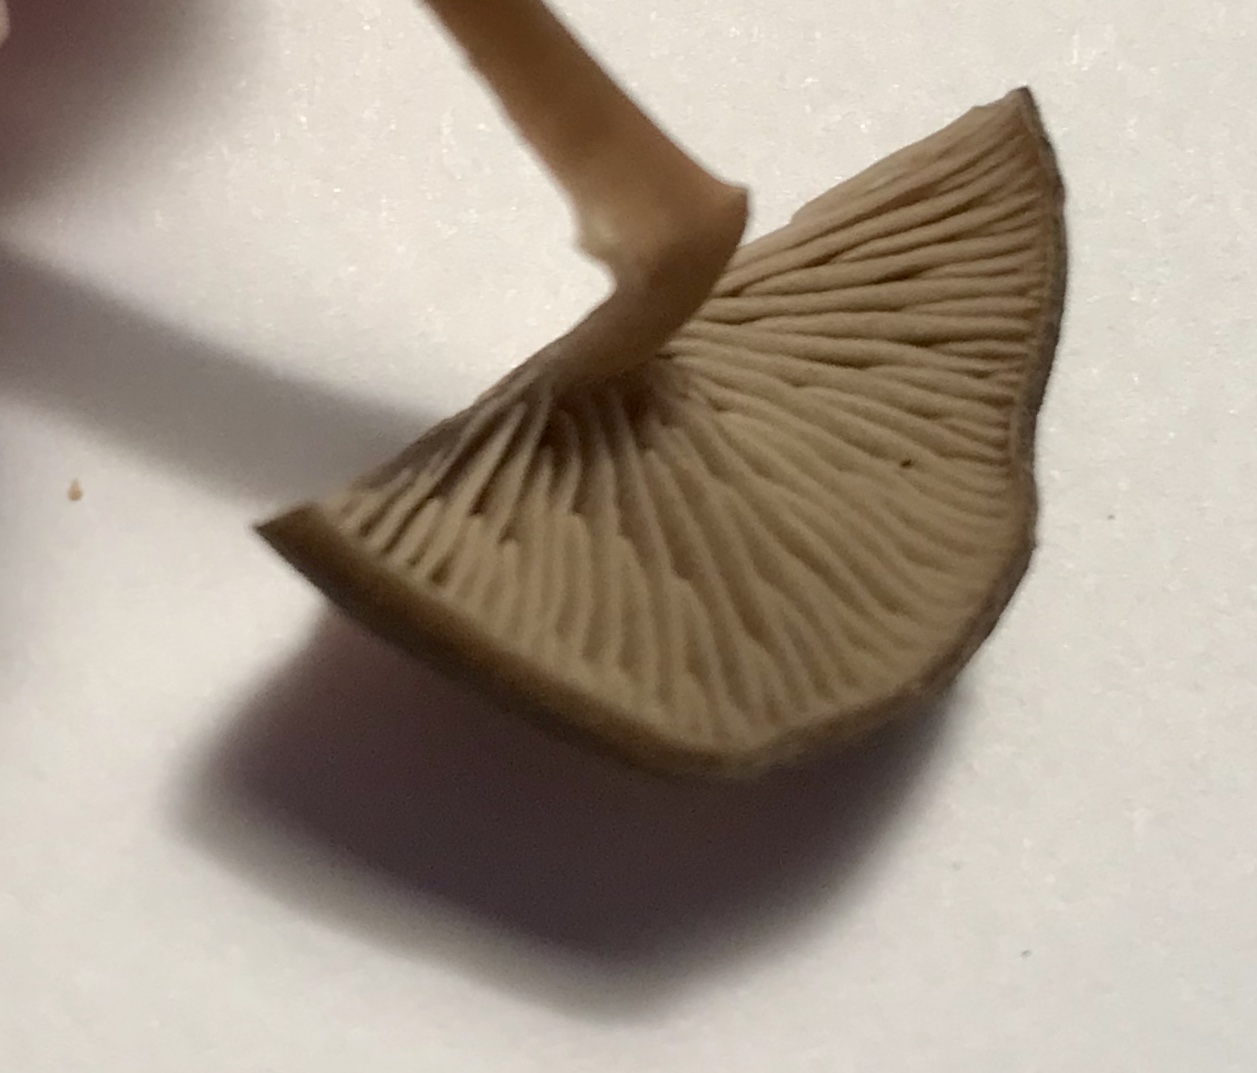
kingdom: Fungi
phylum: Basidiomycota
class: Agaricomycetes
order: Agaricales
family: Entolomataceae
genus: Entoloma
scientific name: Entoloma
